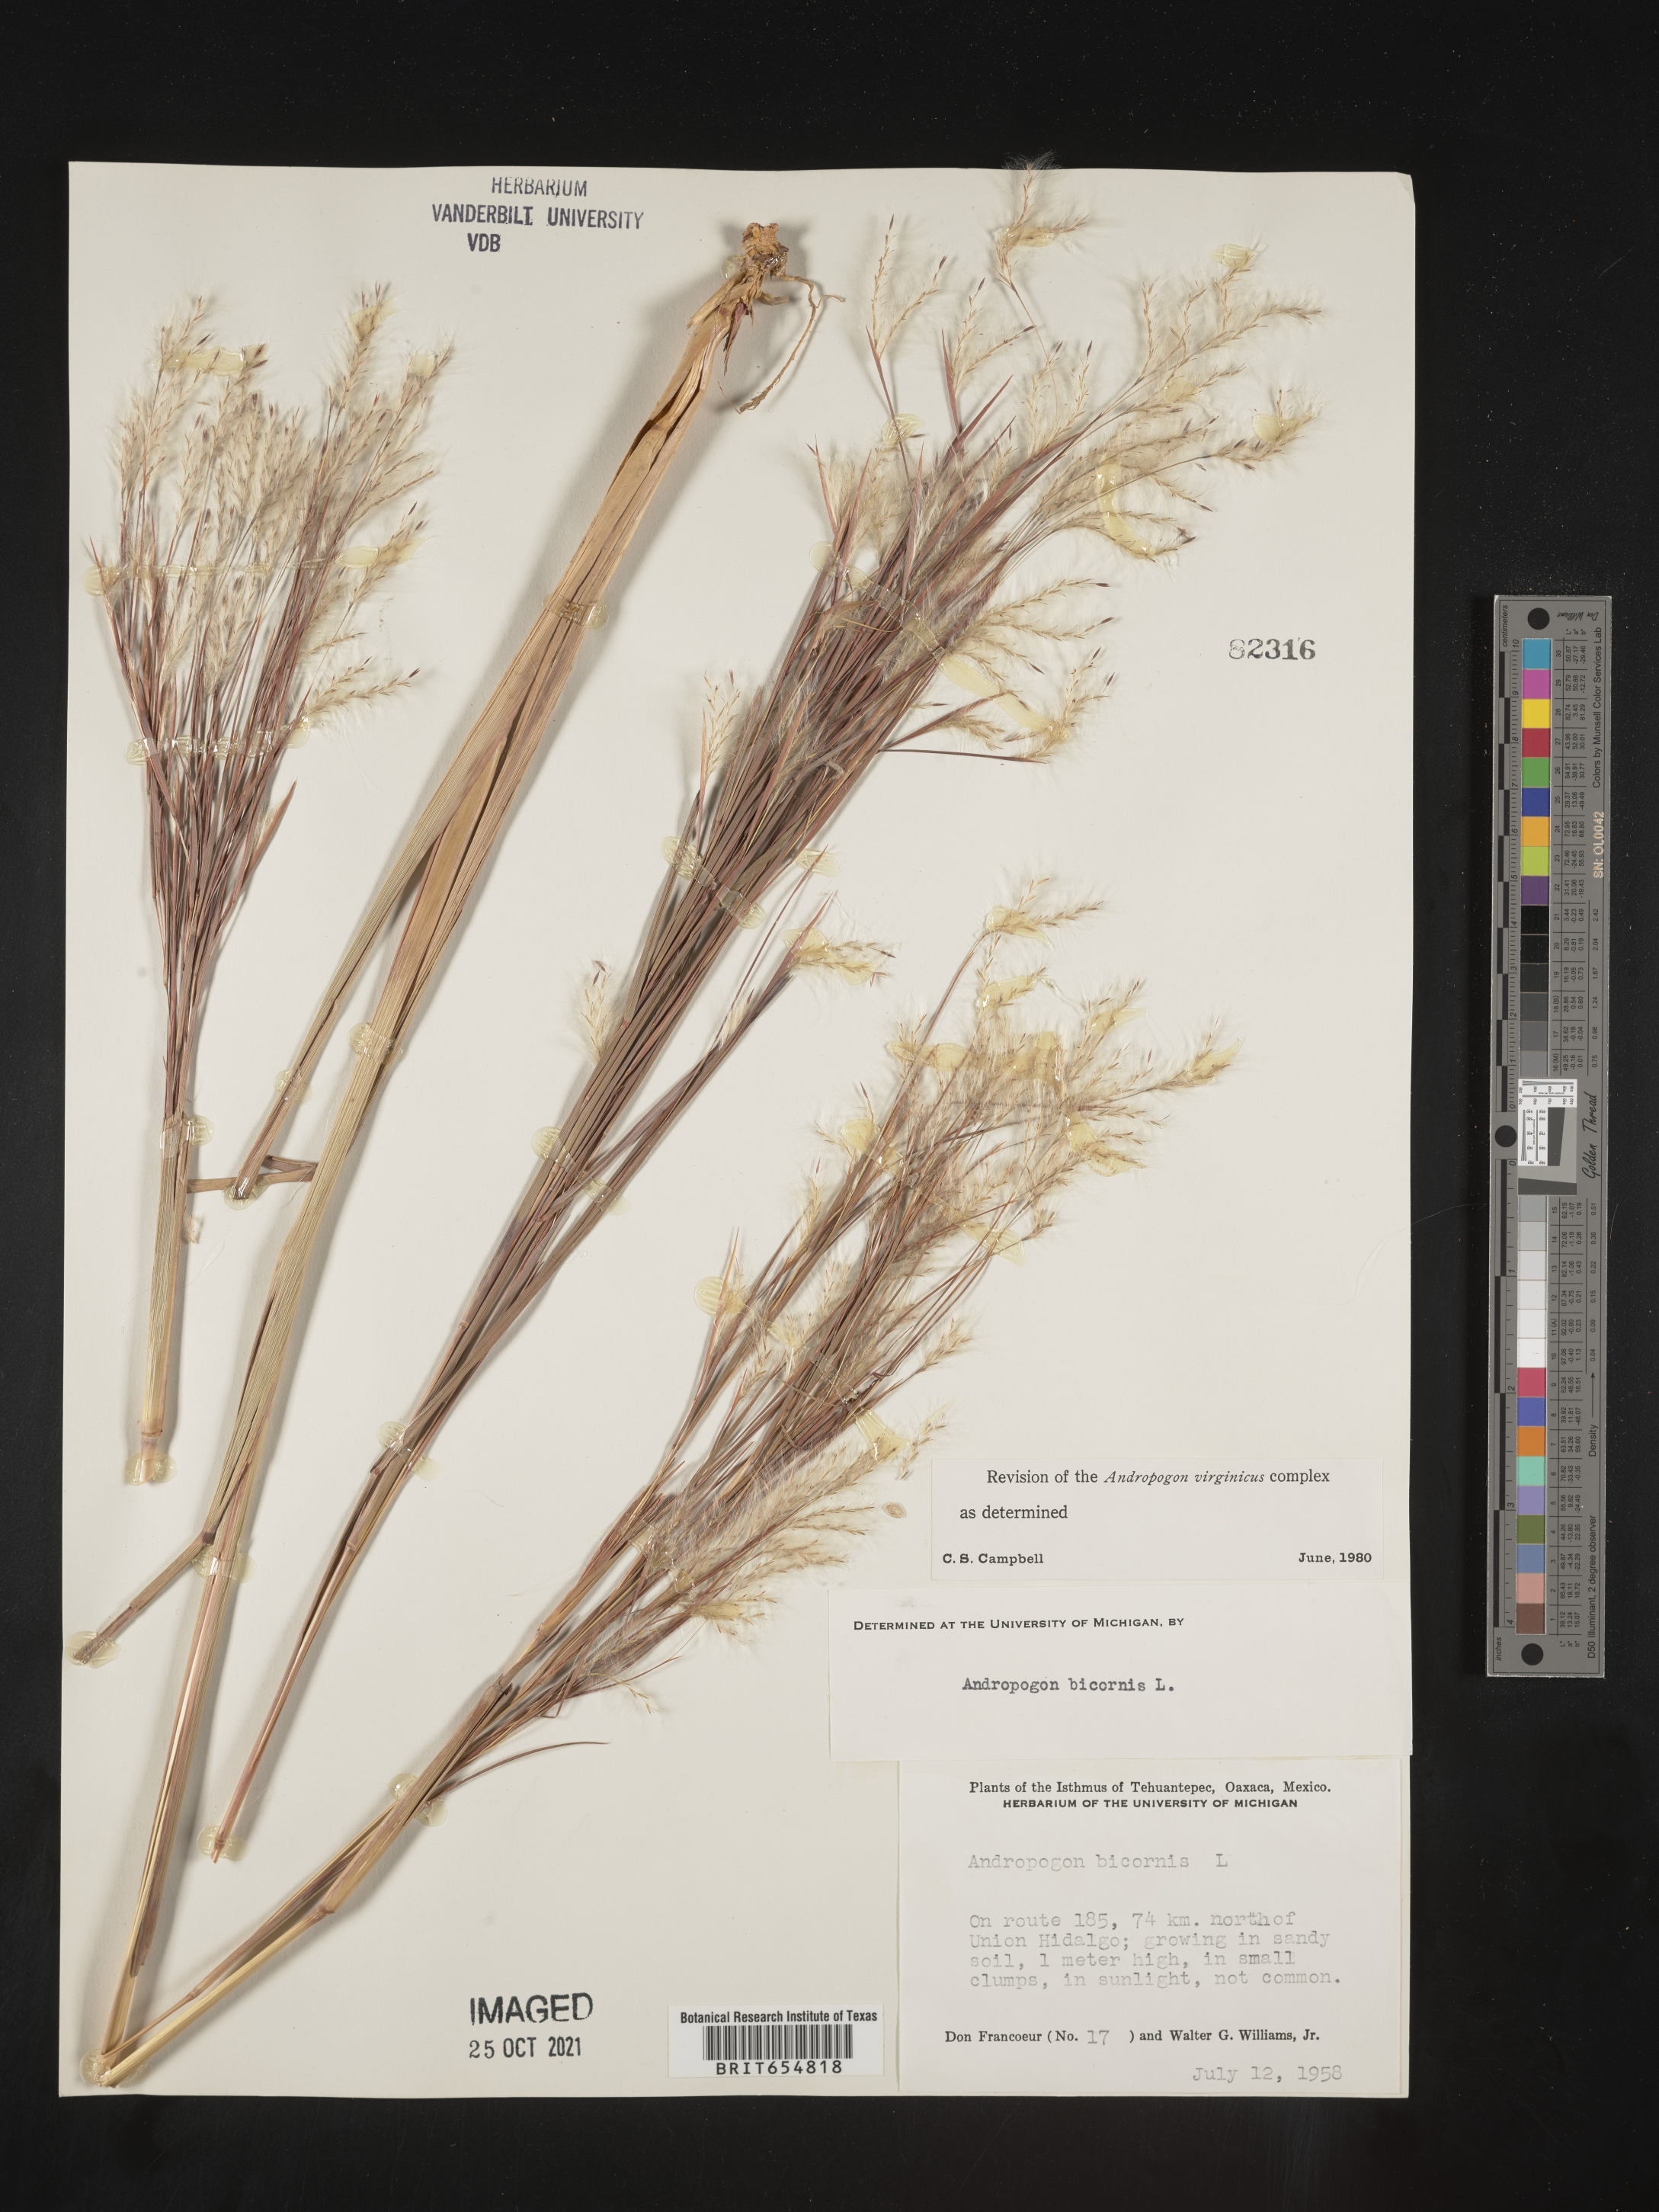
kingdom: Plantae
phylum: Tracheophyta
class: Liliopsida
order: Poales
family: Poaceae
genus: Andropogon
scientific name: Andropogon
